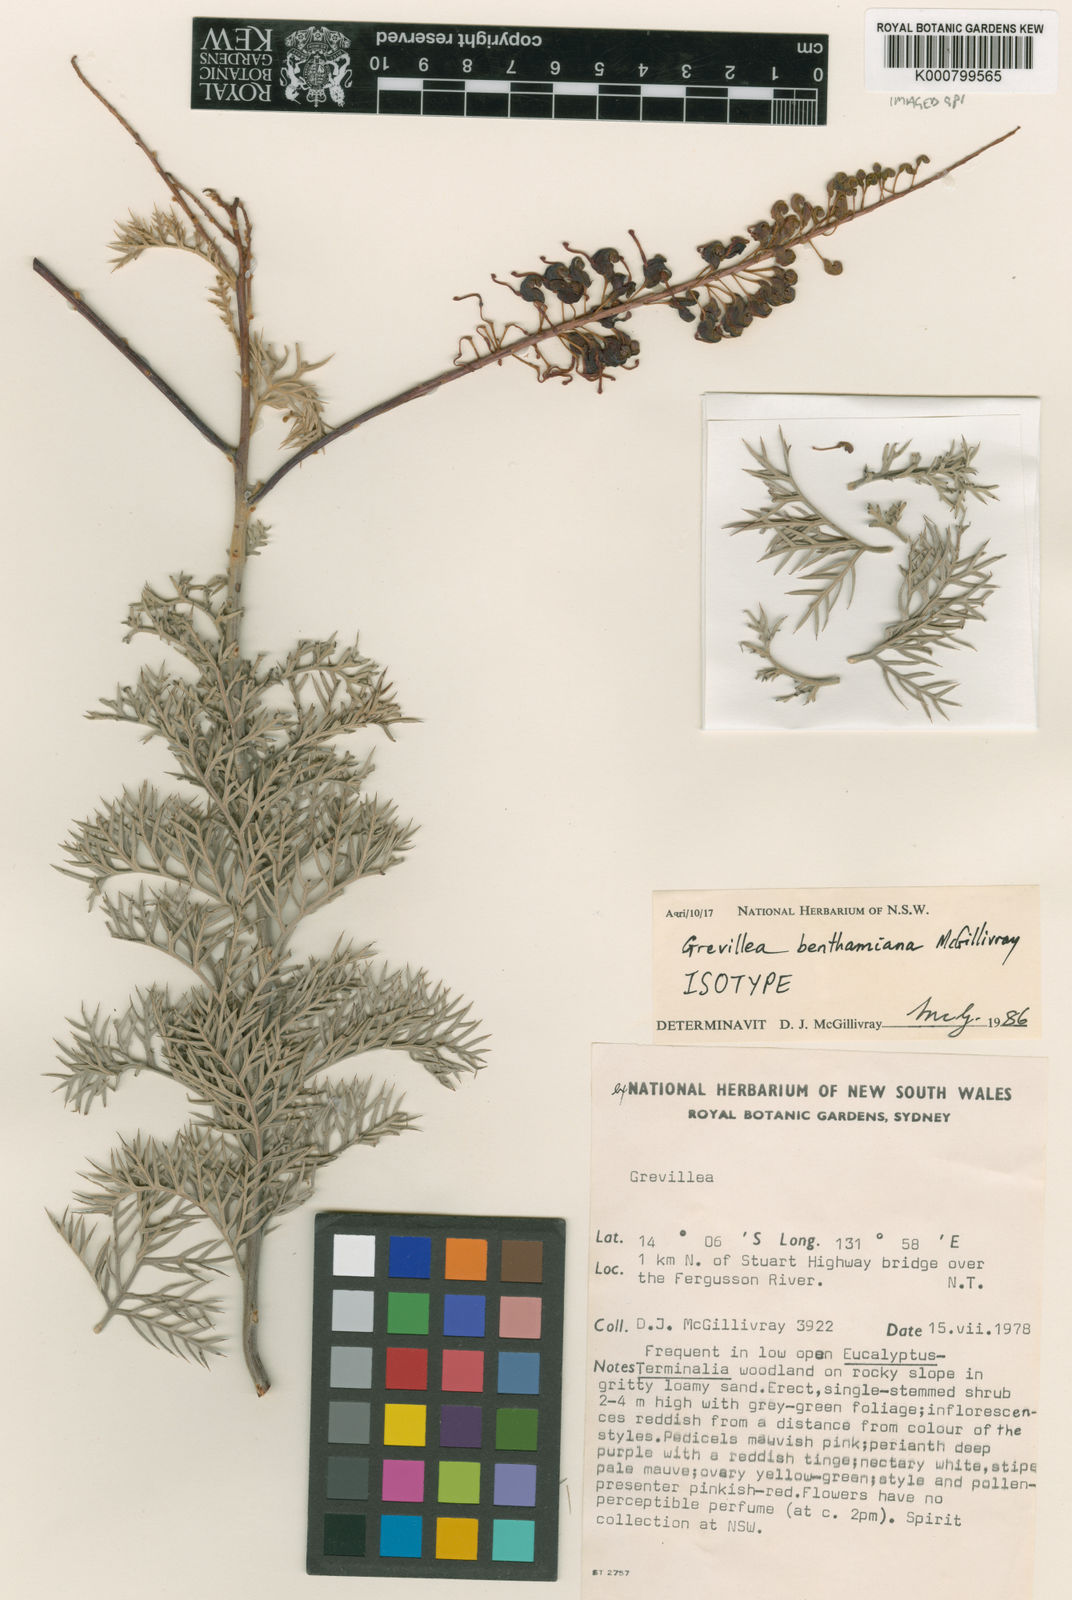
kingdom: Plantae
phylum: Tracheophyta
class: Magnoliopsida
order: Proteales
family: Proteaceae
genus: Grevillea
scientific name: Grevillea benthamiana
